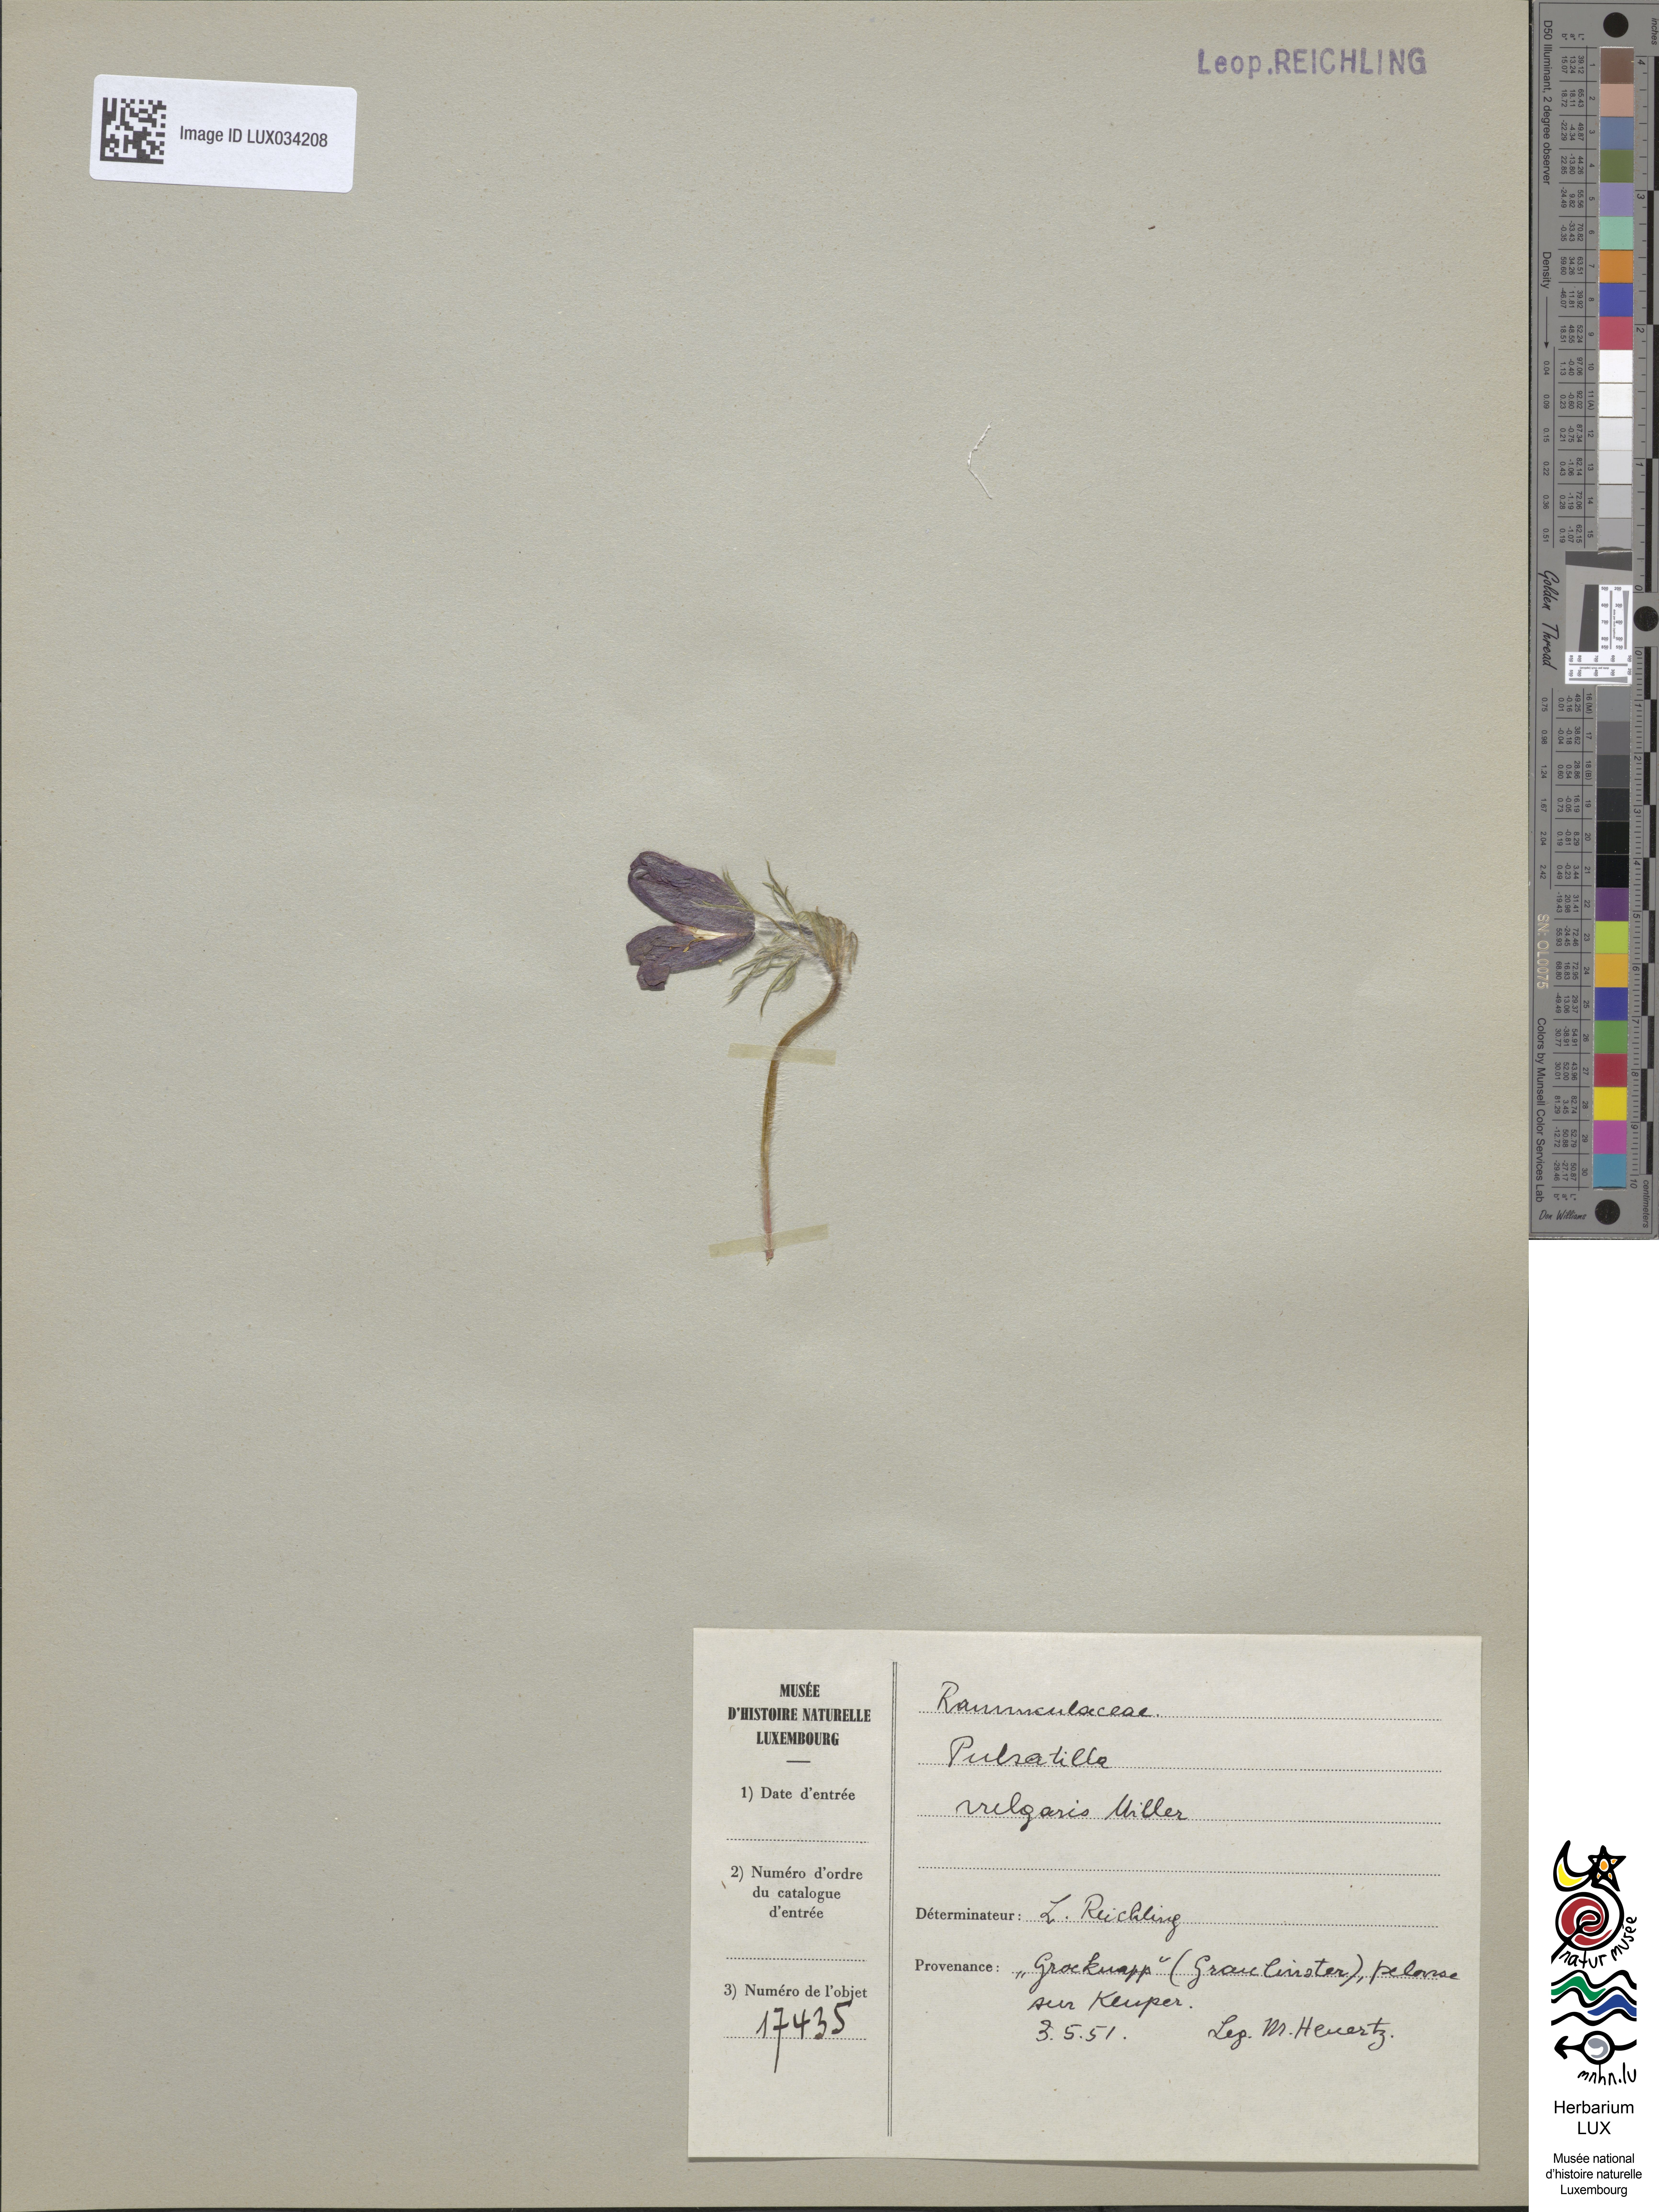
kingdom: Plantae
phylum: Tracheophyta
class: Magnoliopsida
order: Ranunculales
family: Ranunculaceae
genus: Pulsatilla
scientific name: Pulsatilla vulgaris
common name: Pasqueflower
